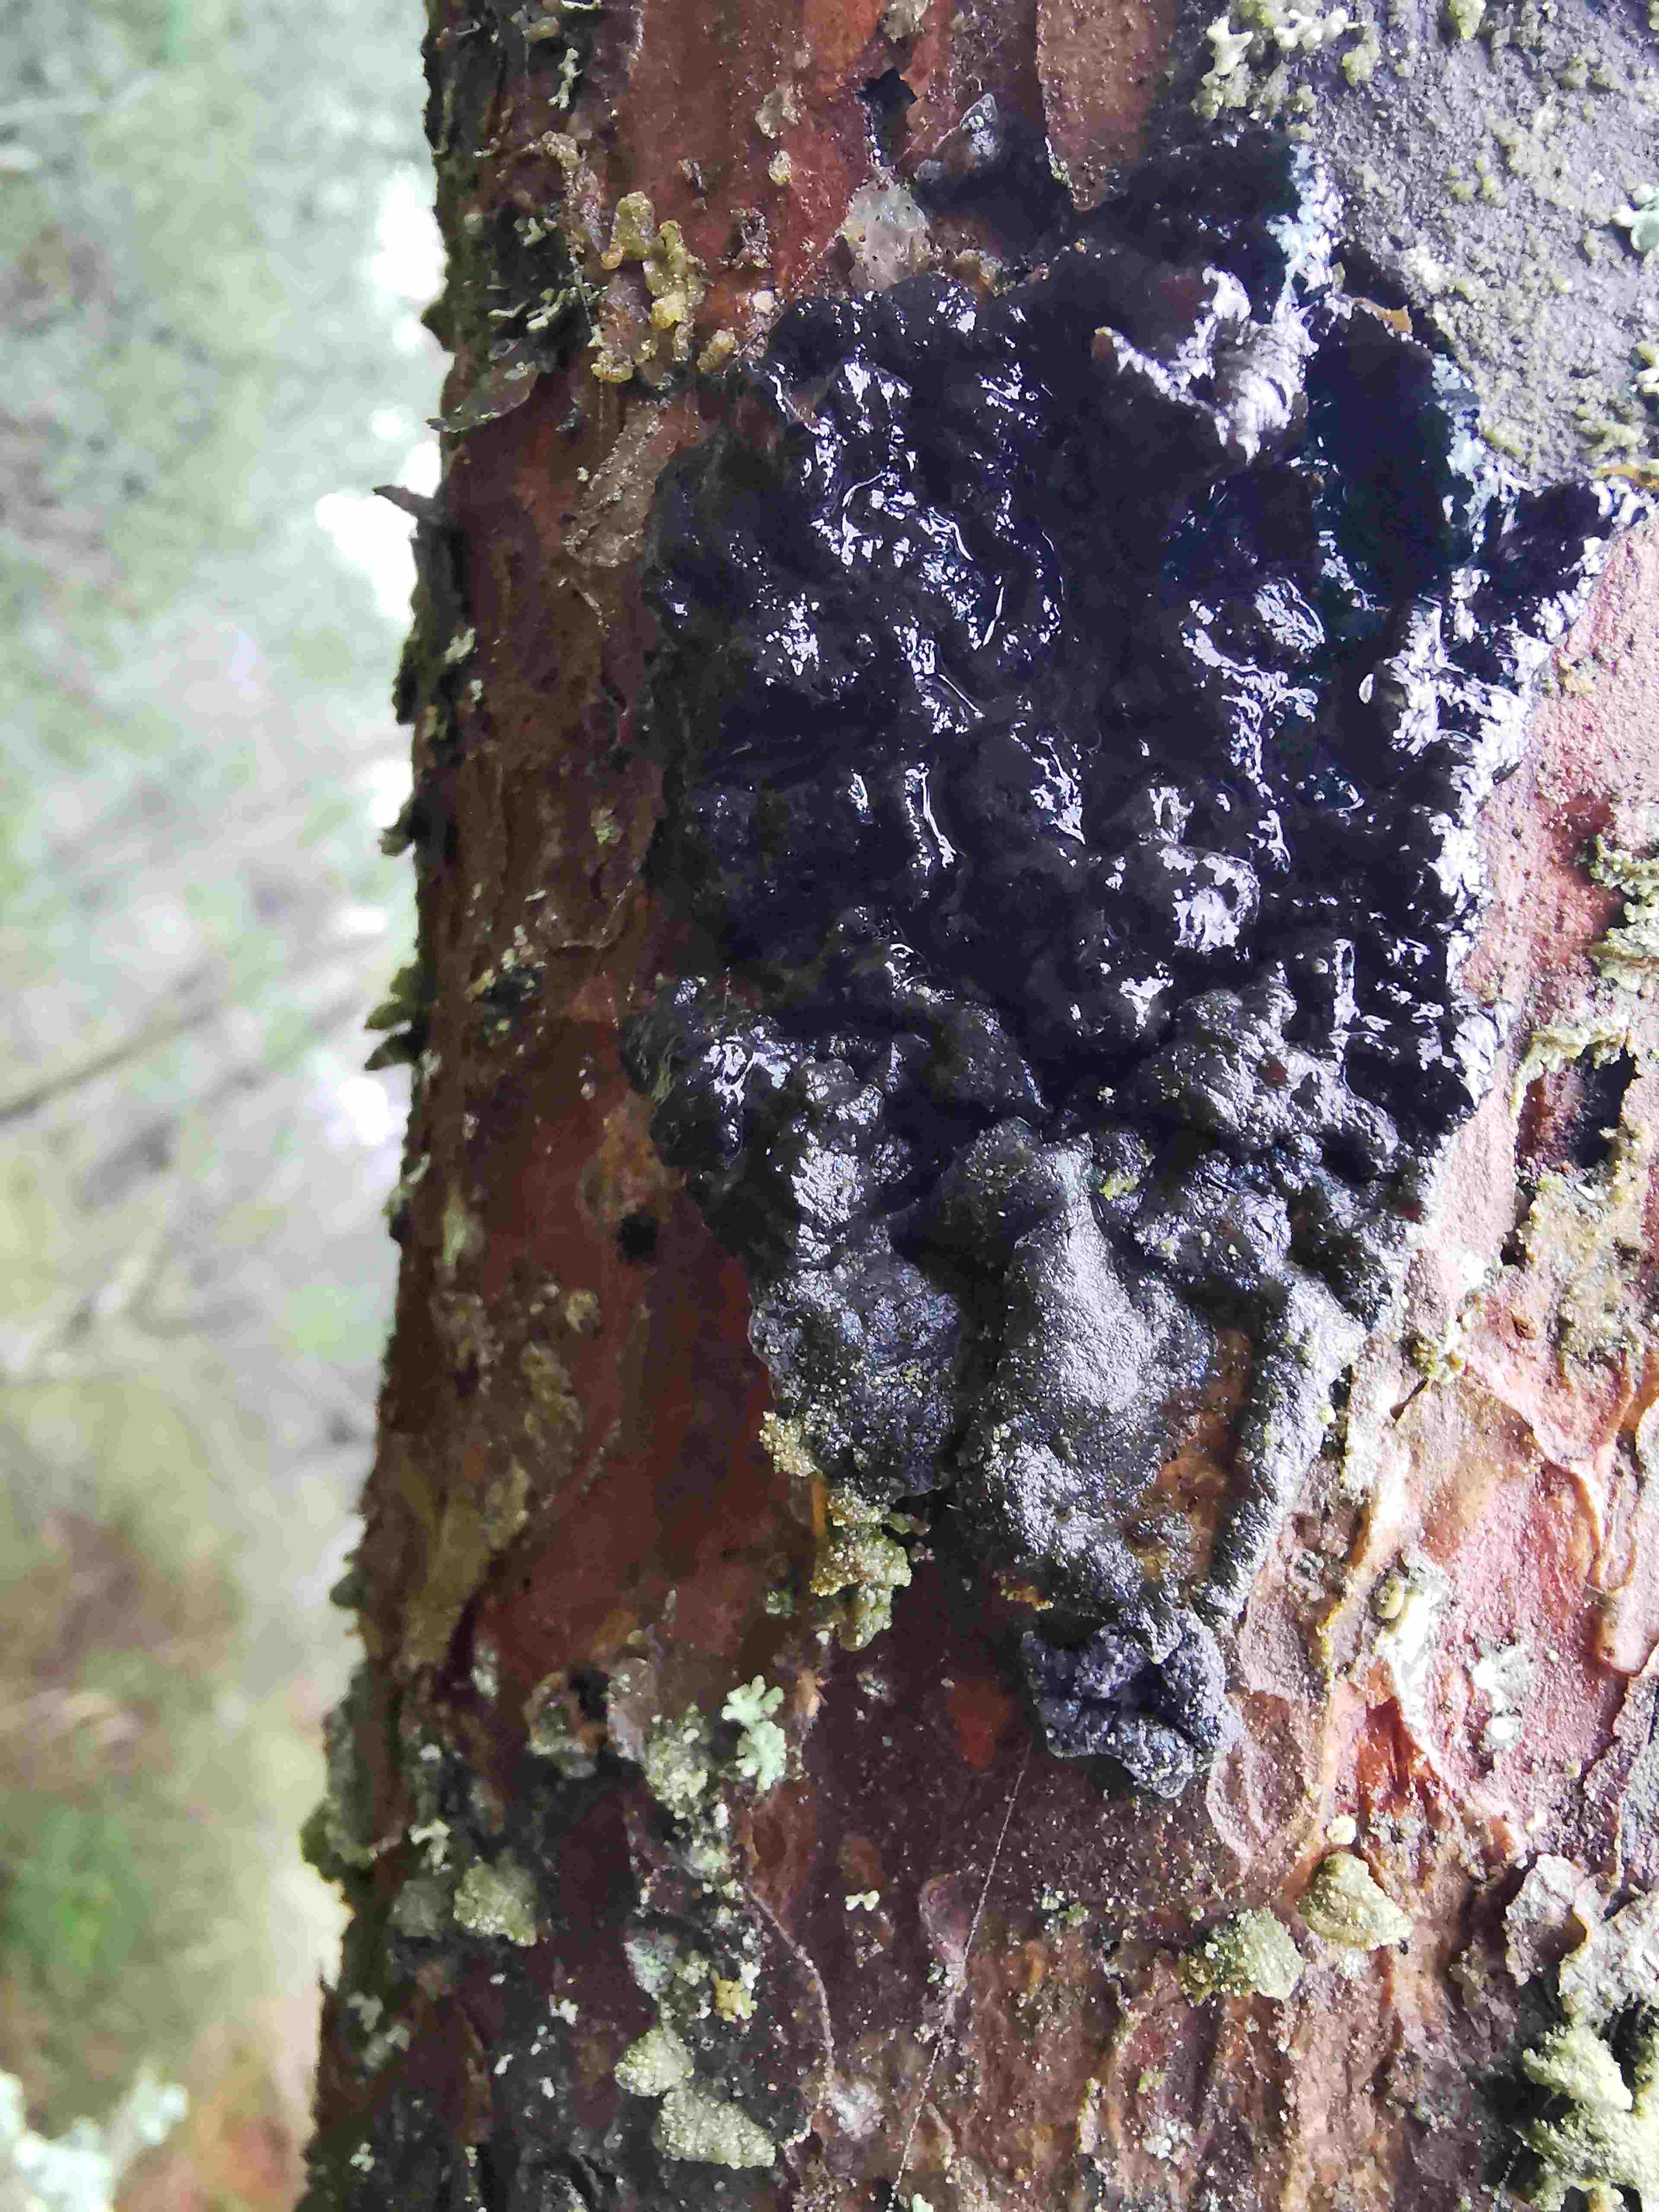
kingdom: Fungi
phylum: Basidiomycota
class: Agaricomycetes
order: Auriculariales
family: Auriculariaceae
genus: Exidia
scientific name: Exidia pithya
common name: gran-bævretop
